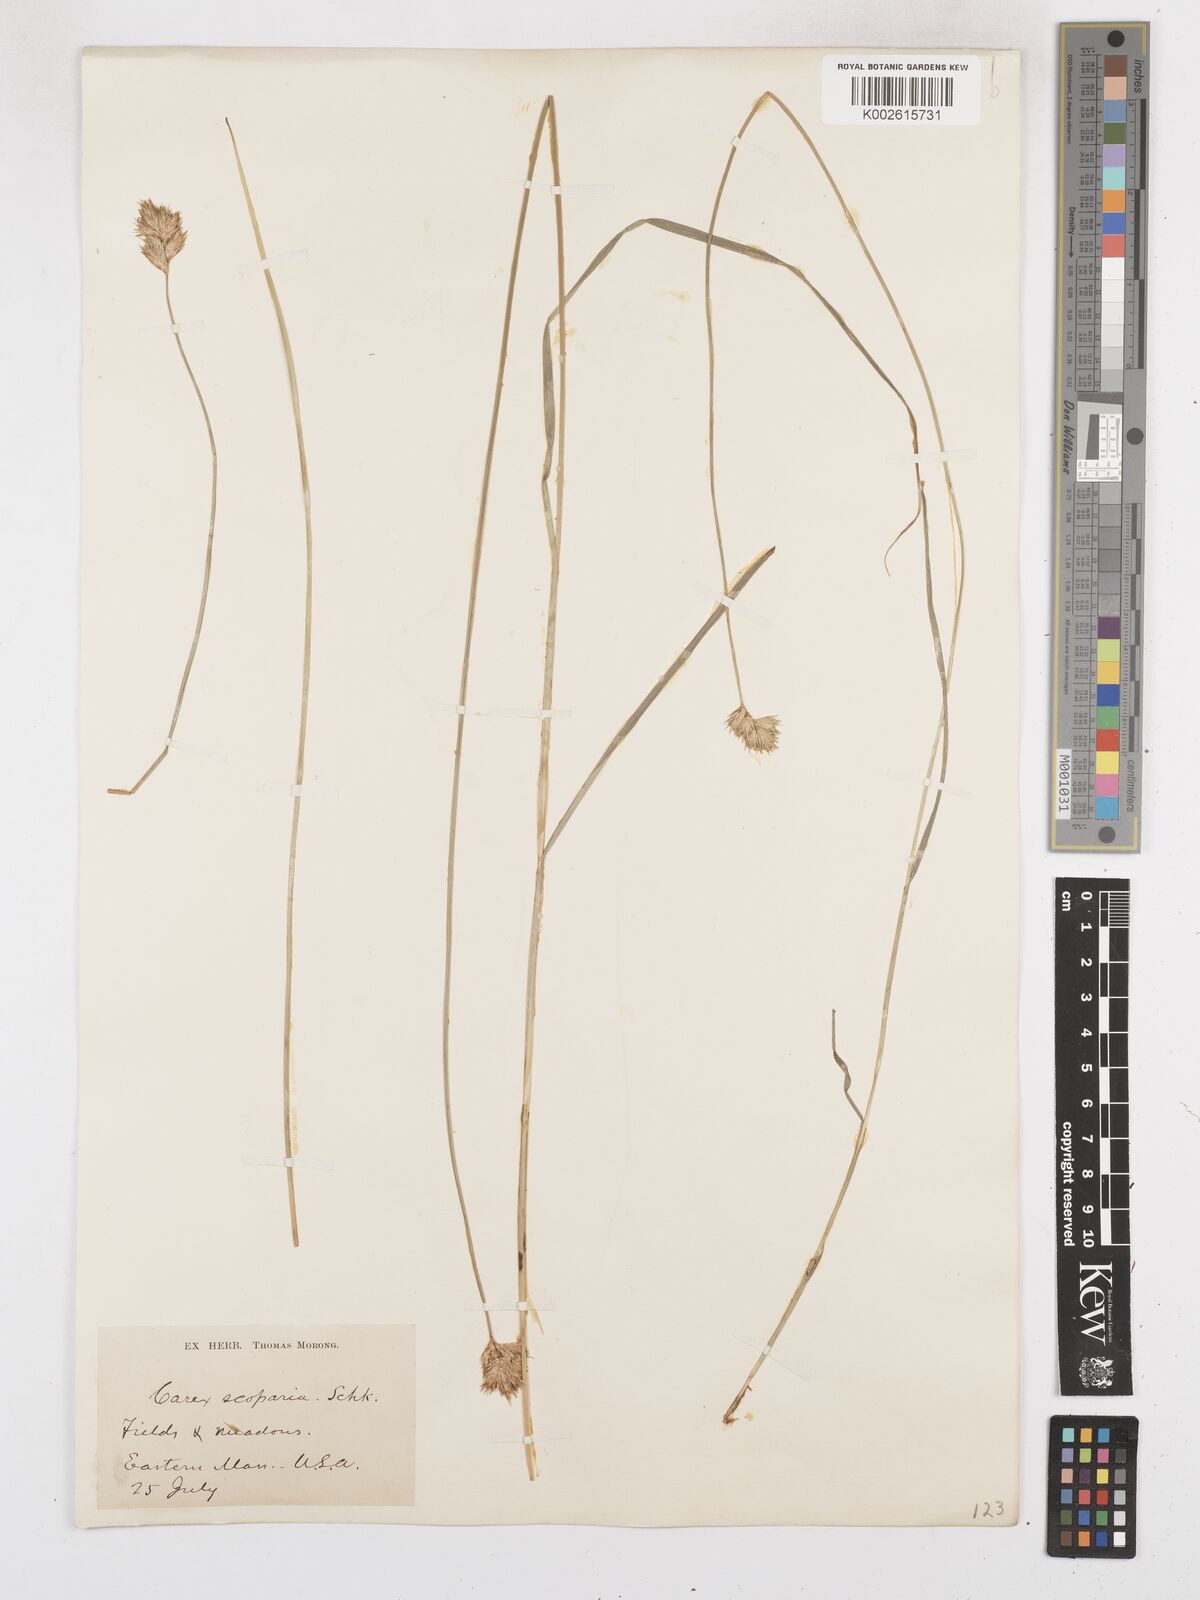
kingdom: Plantae
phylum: Tracheophyta
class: Liliopsida
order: Poales
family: Cyperaceae
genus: Carex
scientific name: Carex leporina
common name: Oval sedge
